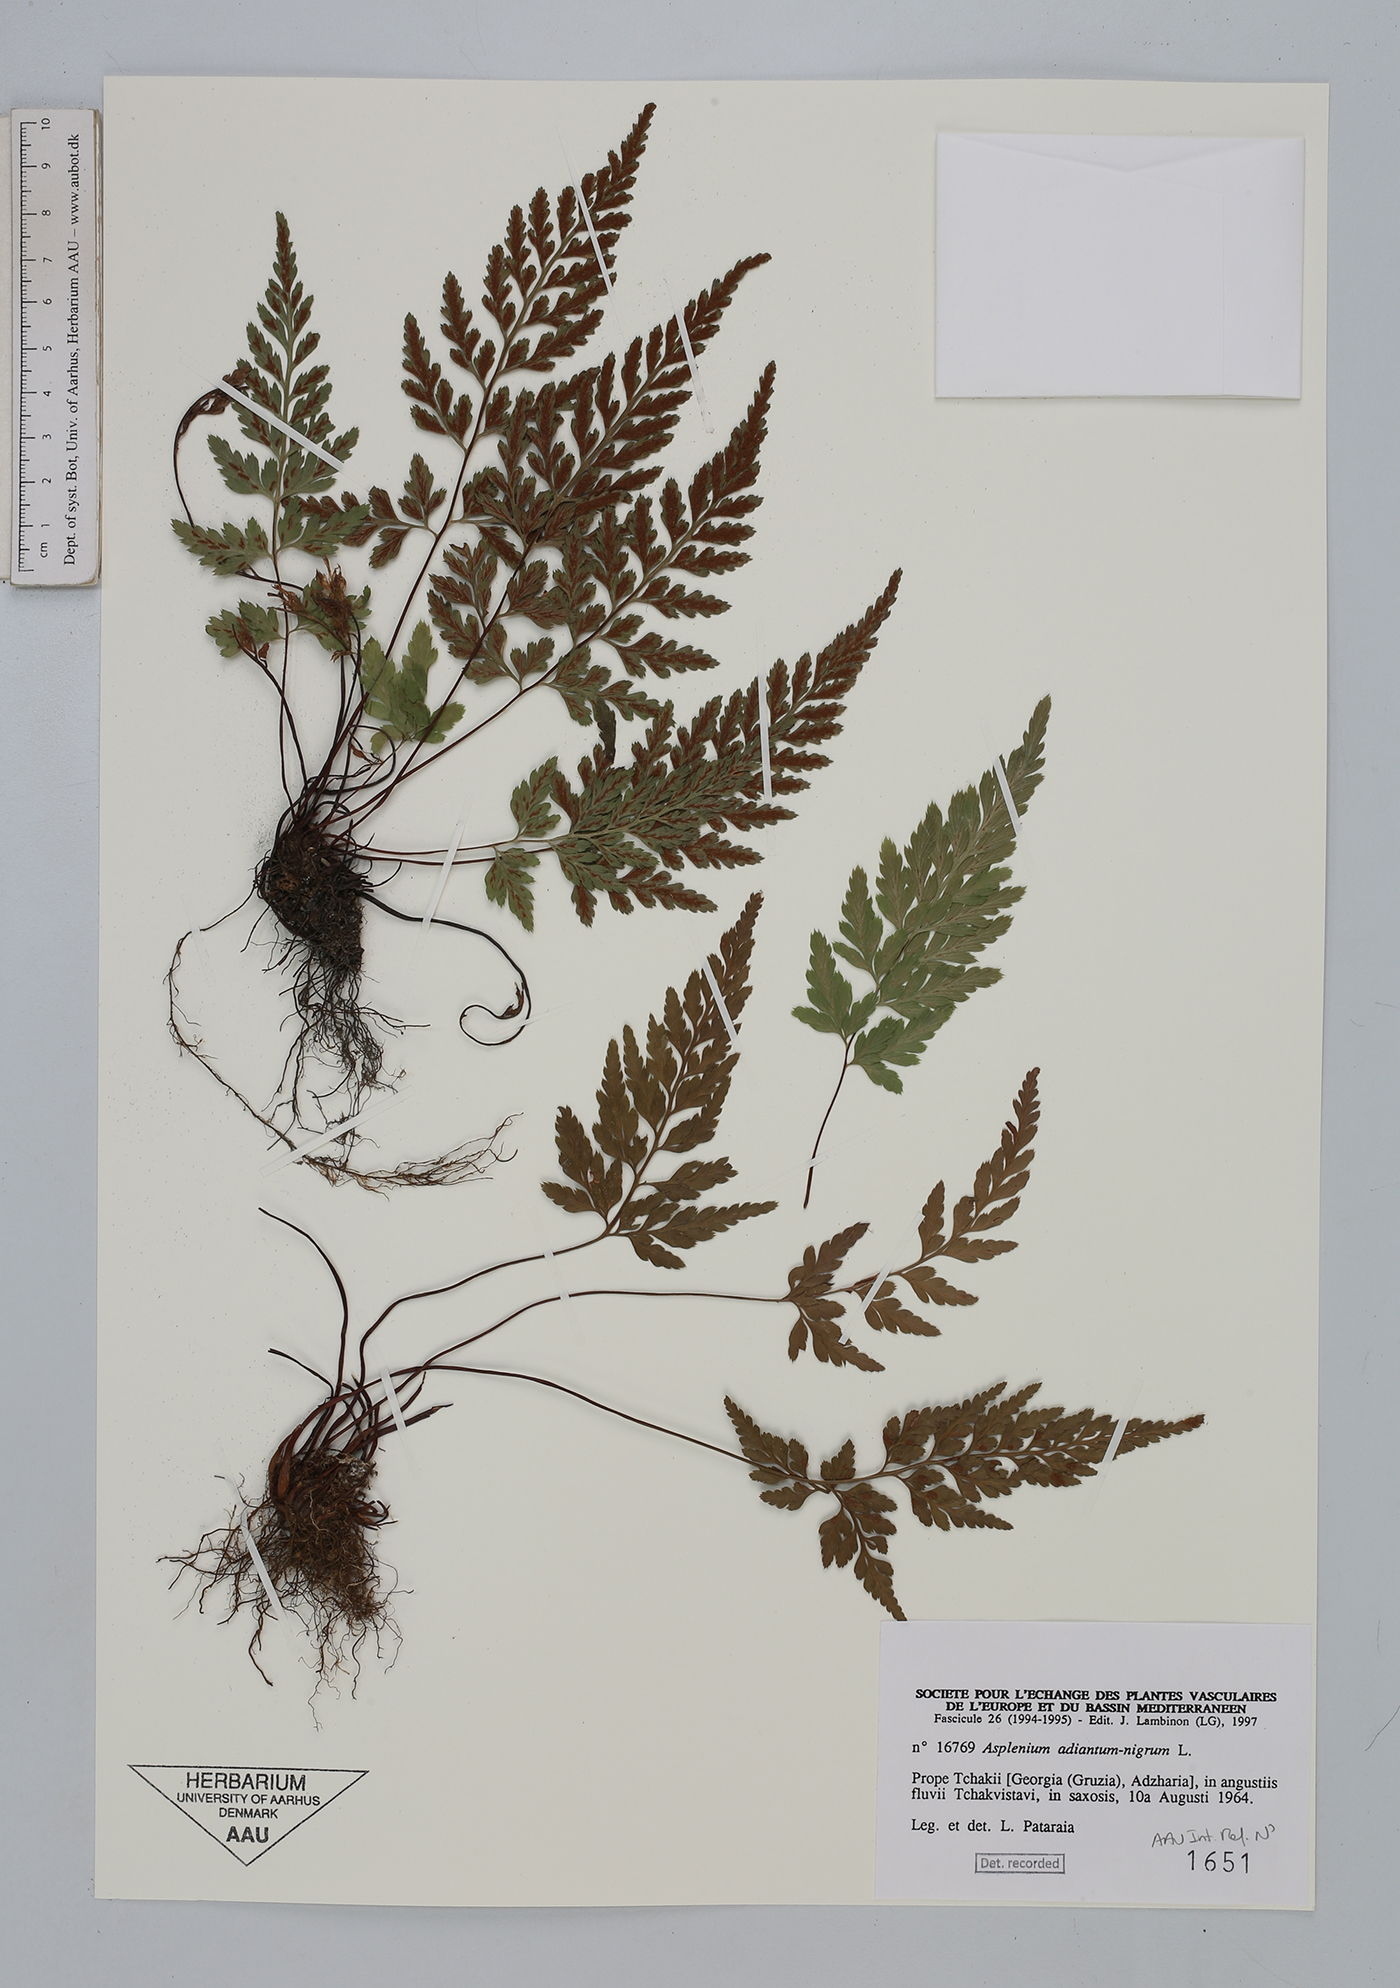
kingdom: Plantae
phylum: Tracheophyta
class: Polypodiopsida
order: Polypodiales
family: Aspleniaceae
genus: Asplenium
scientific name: Asplenium adiantum-nigrum
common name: Black spleenwort
